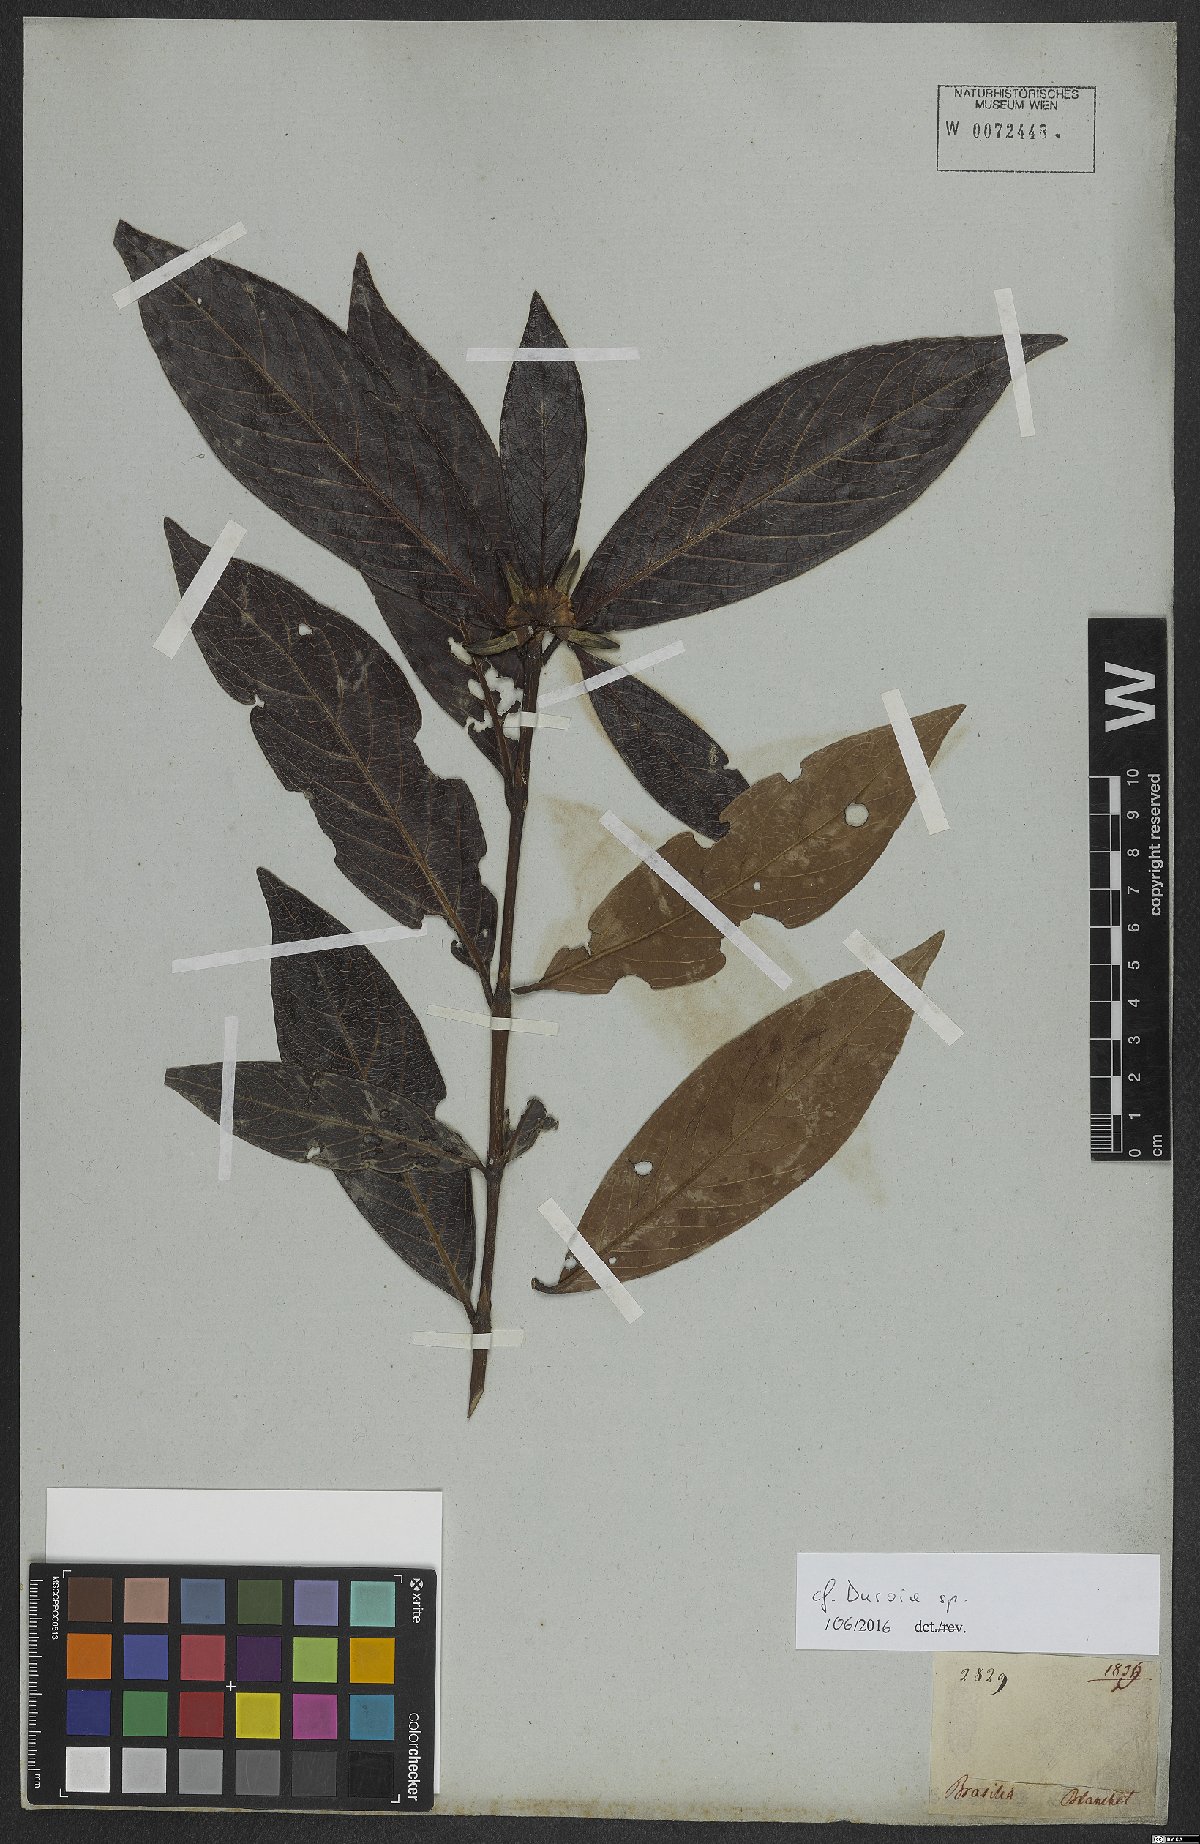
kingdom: Plantae
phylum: Tracheophyta
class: Magnoliopsida
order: Gentianales
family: Rubiaceae
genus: Duroia
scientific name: Duroia
